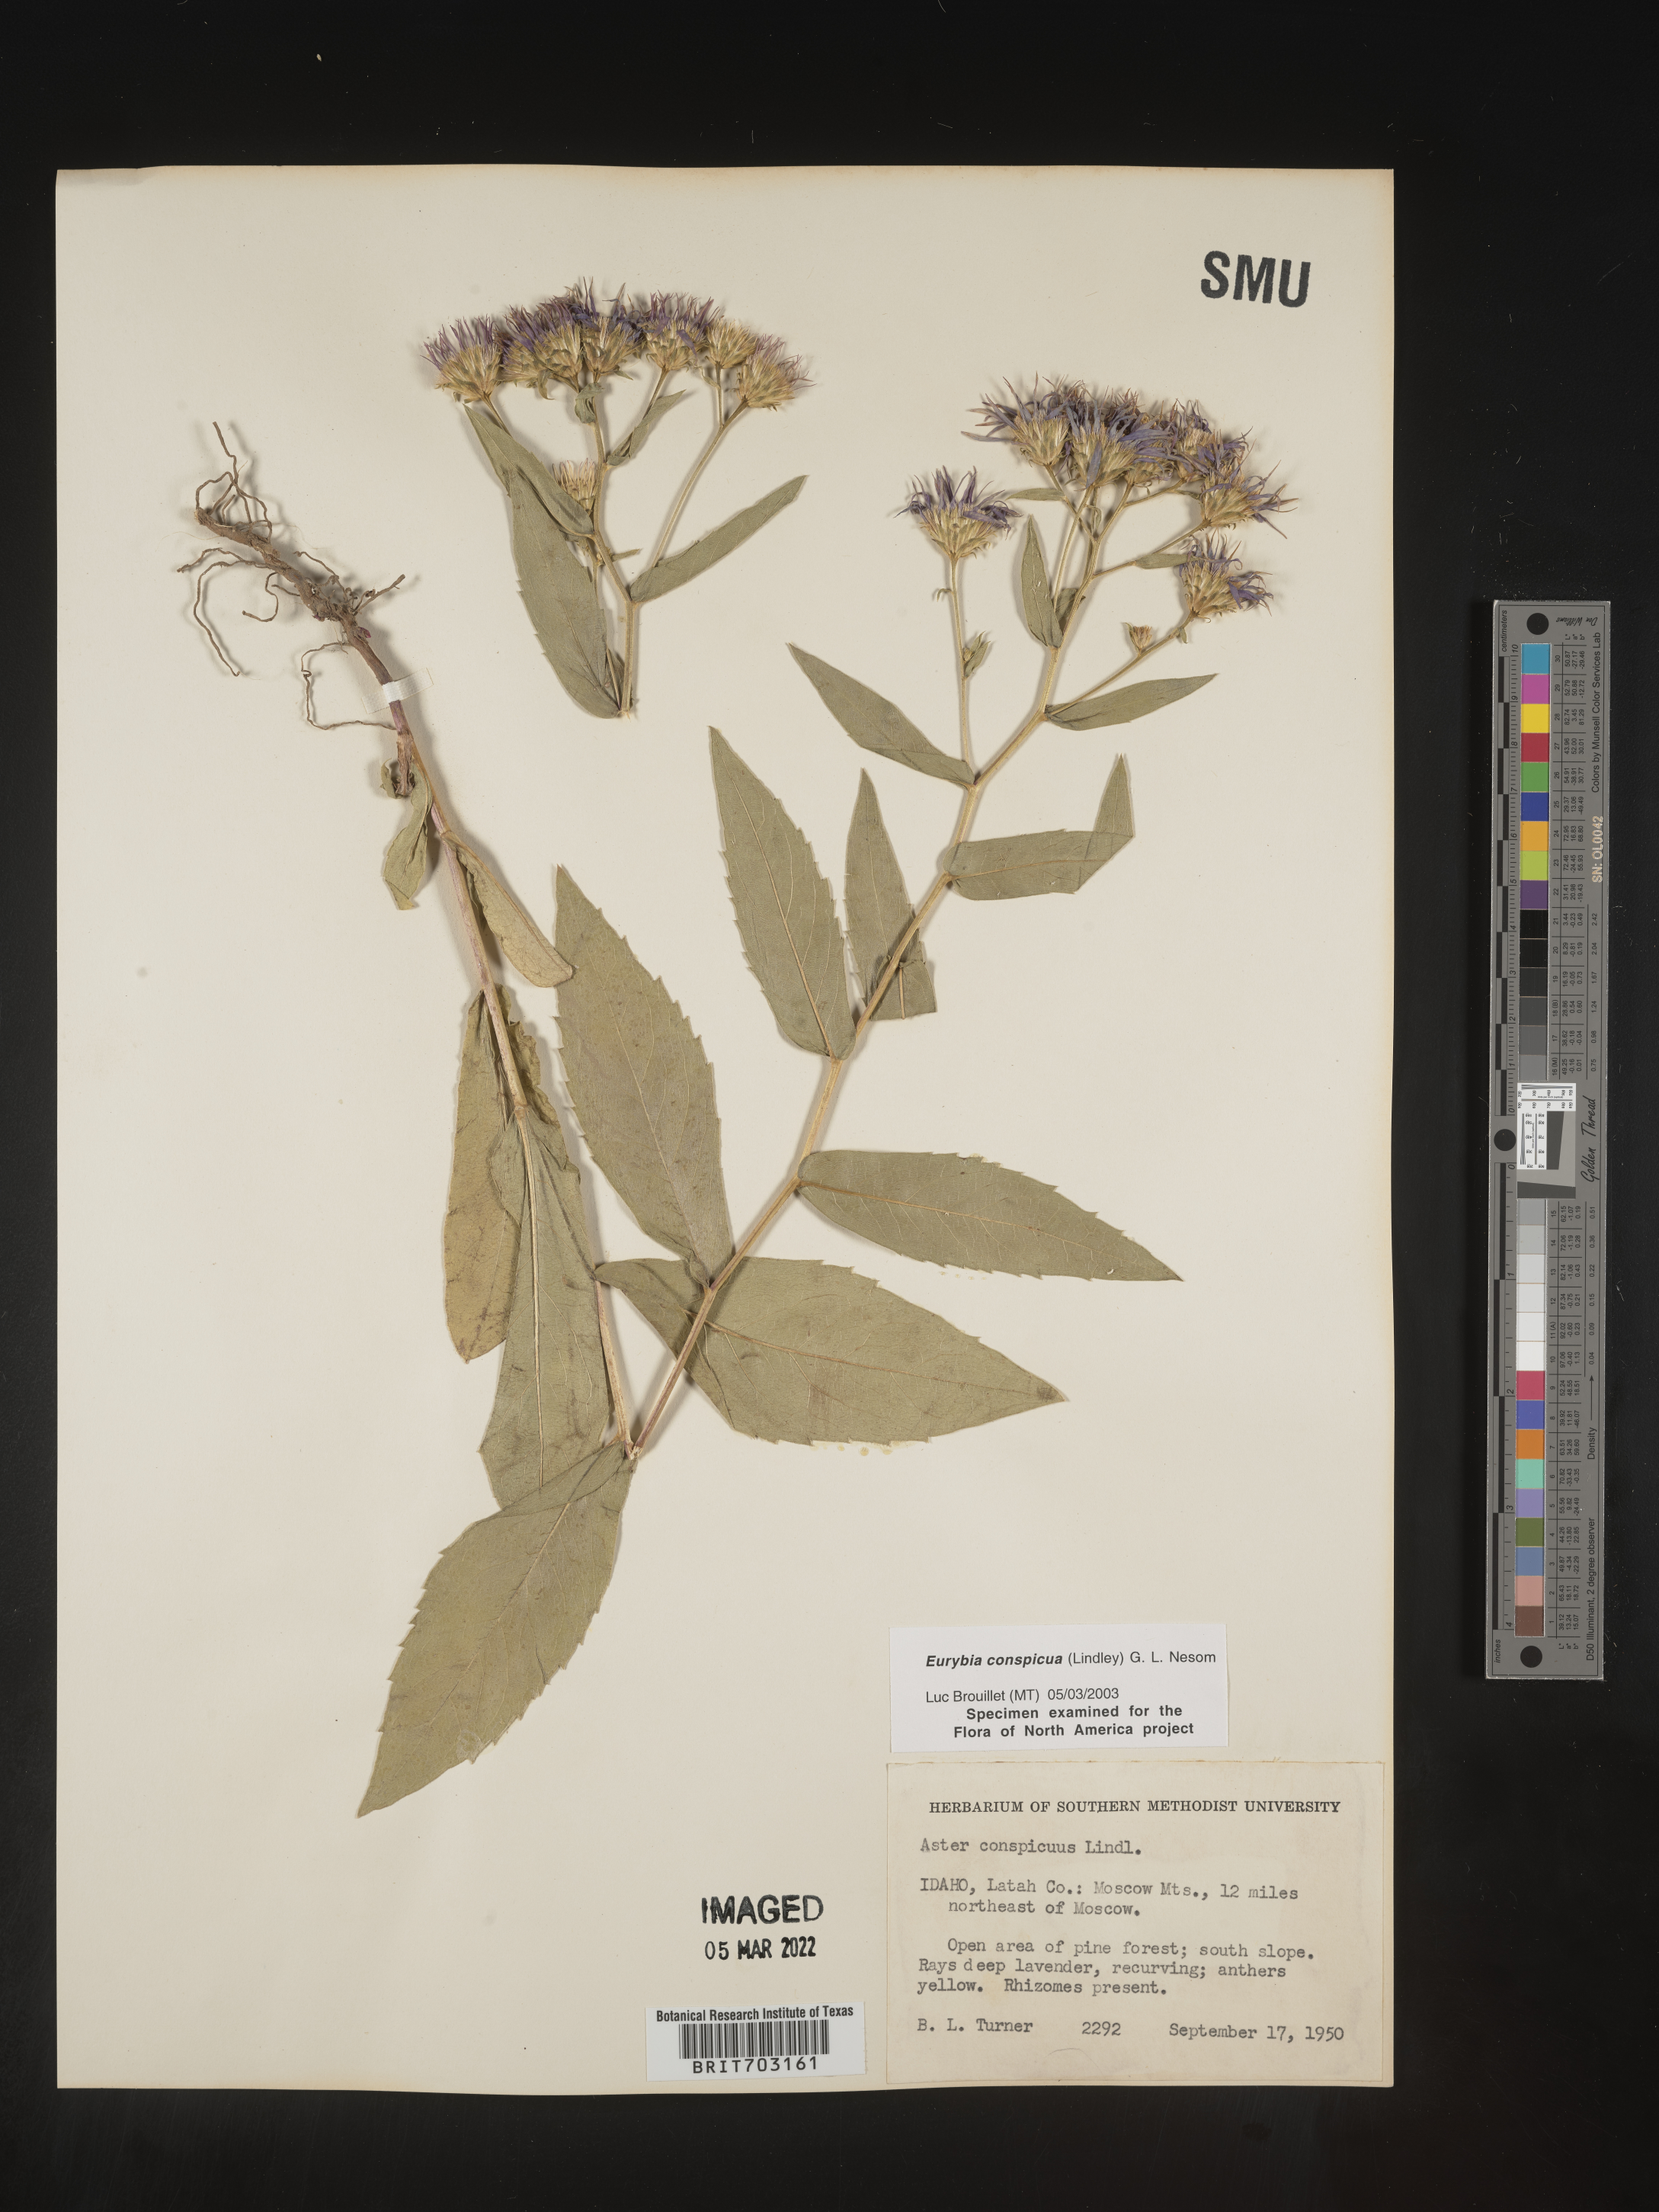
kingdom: Plantae
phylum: Tracheophyta
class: Magnoliopsida
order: Asterales
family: Asteraceae
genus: Eurybia
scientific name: Eurybia conspicua
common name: Showy aster
